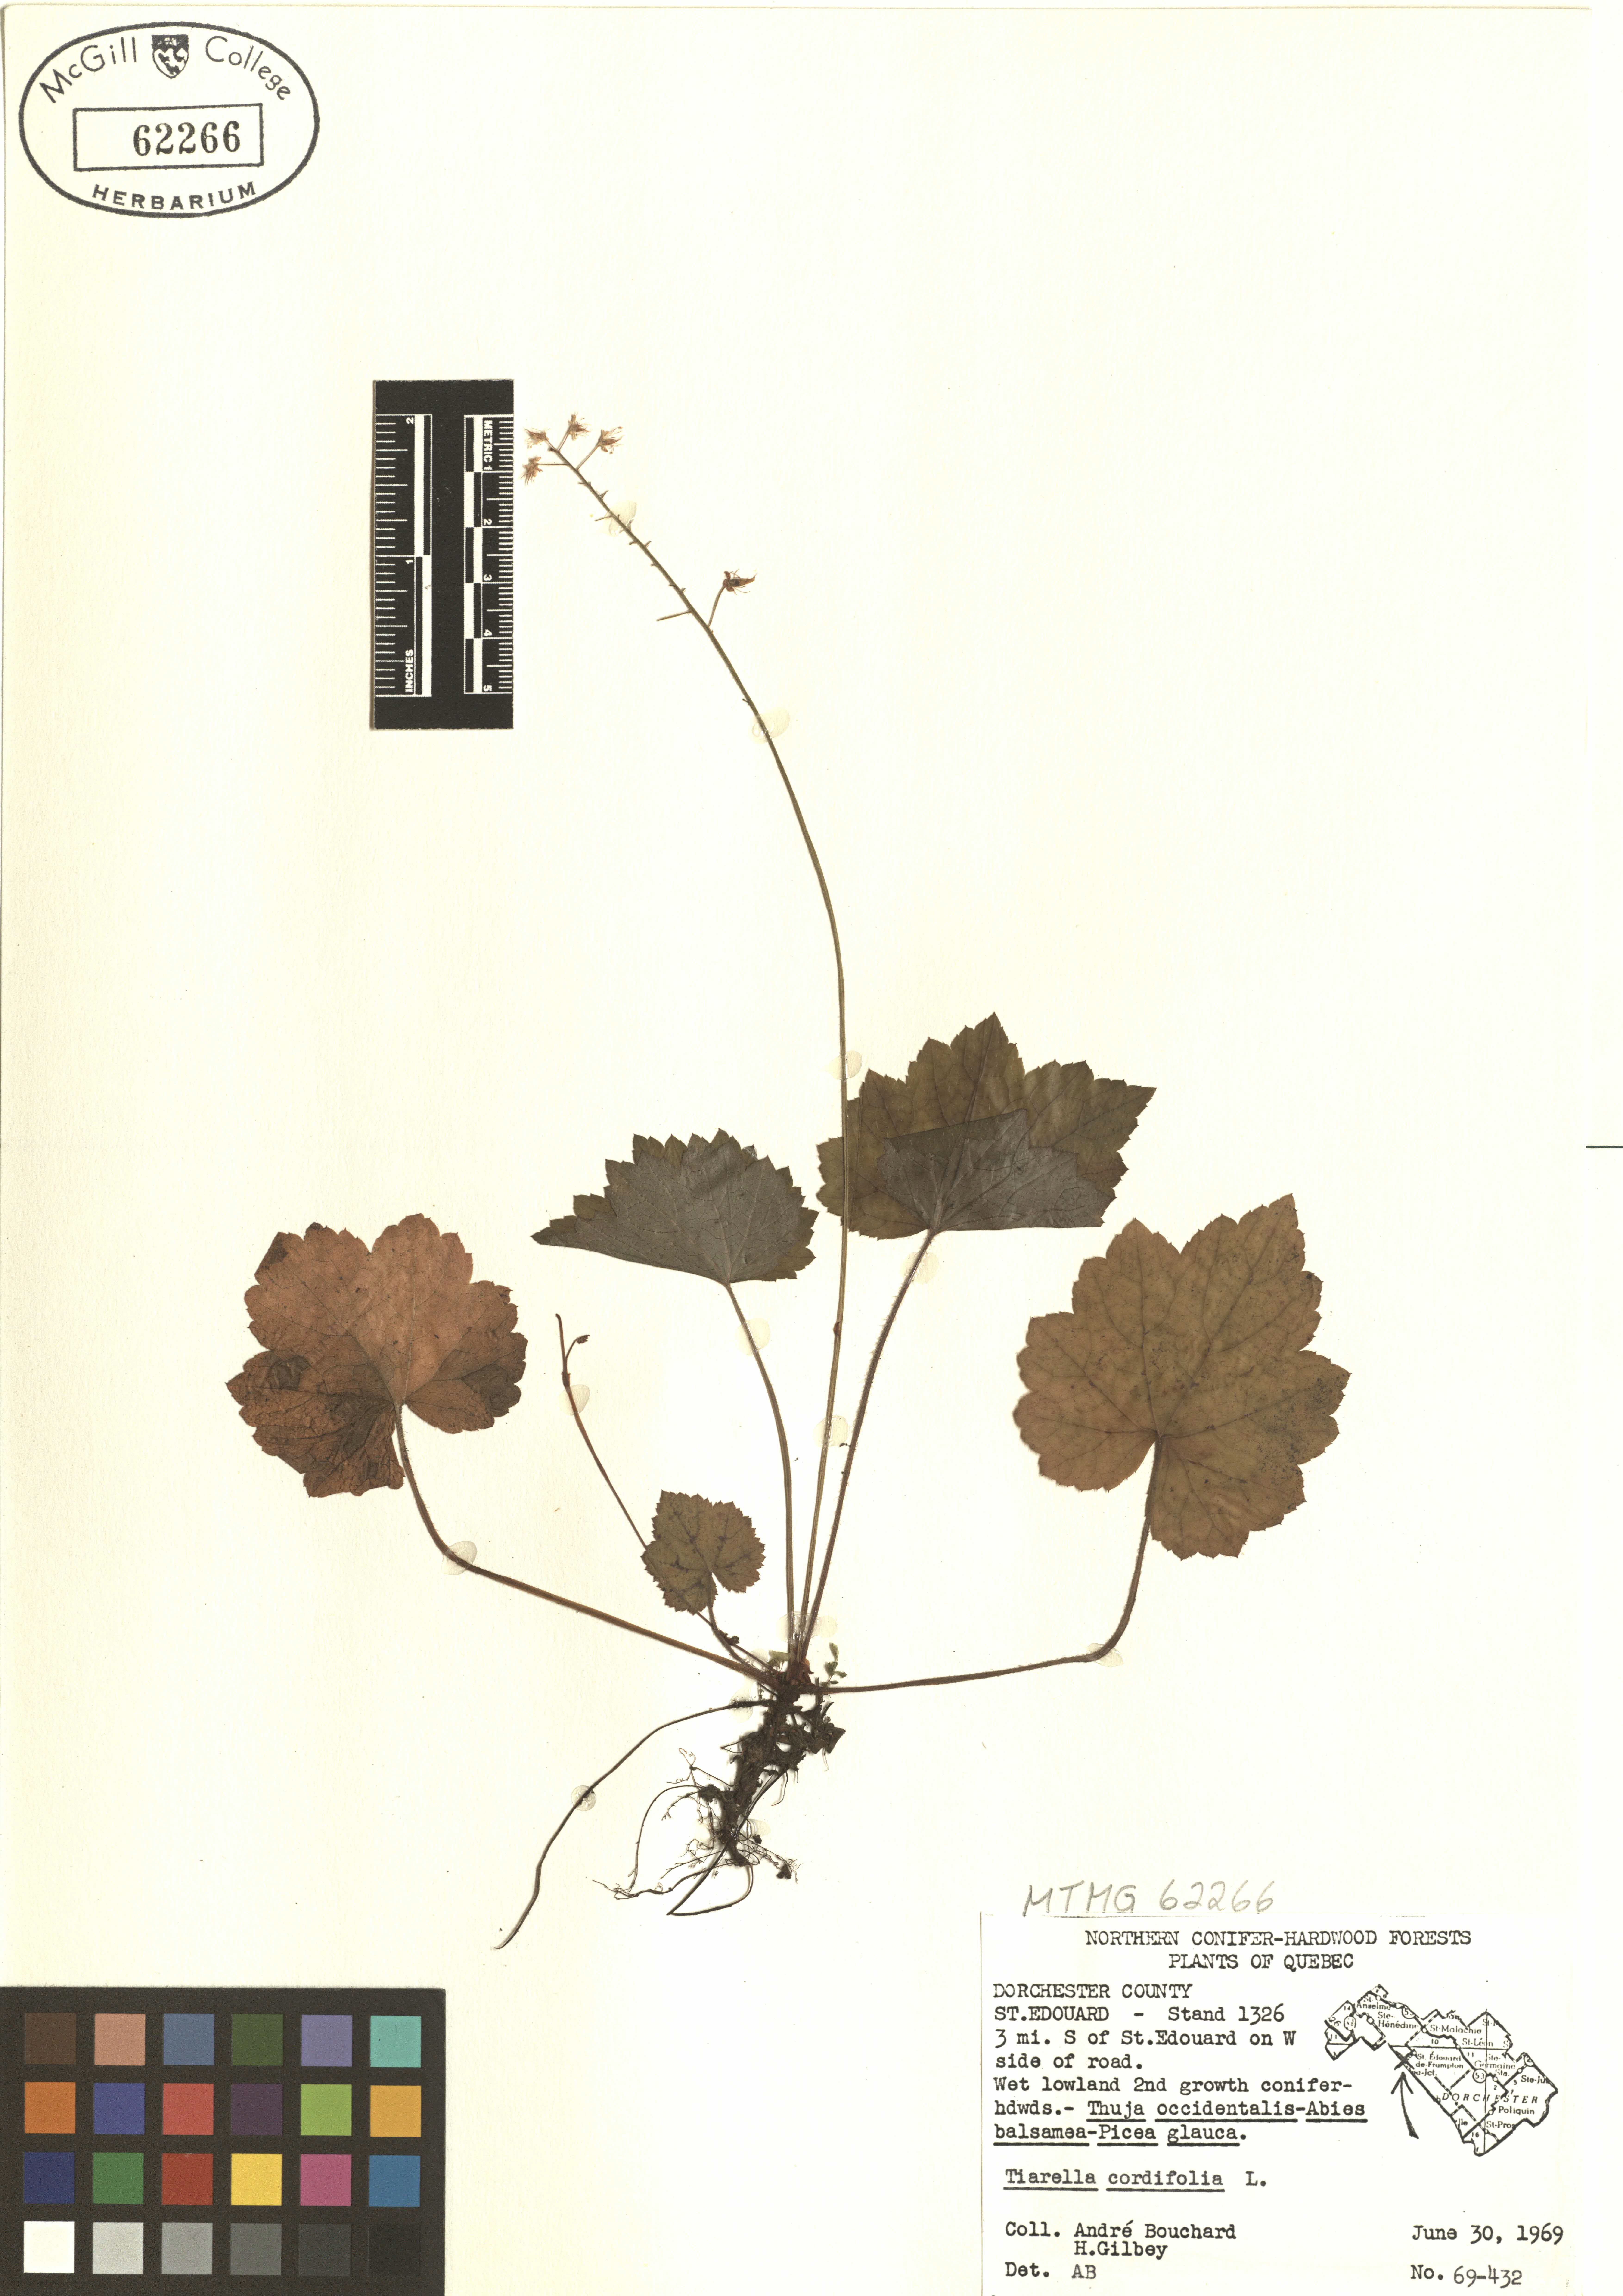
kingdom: Plantae
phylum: Tracheophyta
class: Magnoliopsida
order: Saxifragales
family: Saxifragaceae
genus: Tiarella
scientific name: Tiarella cordifolia
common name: Foamflower
